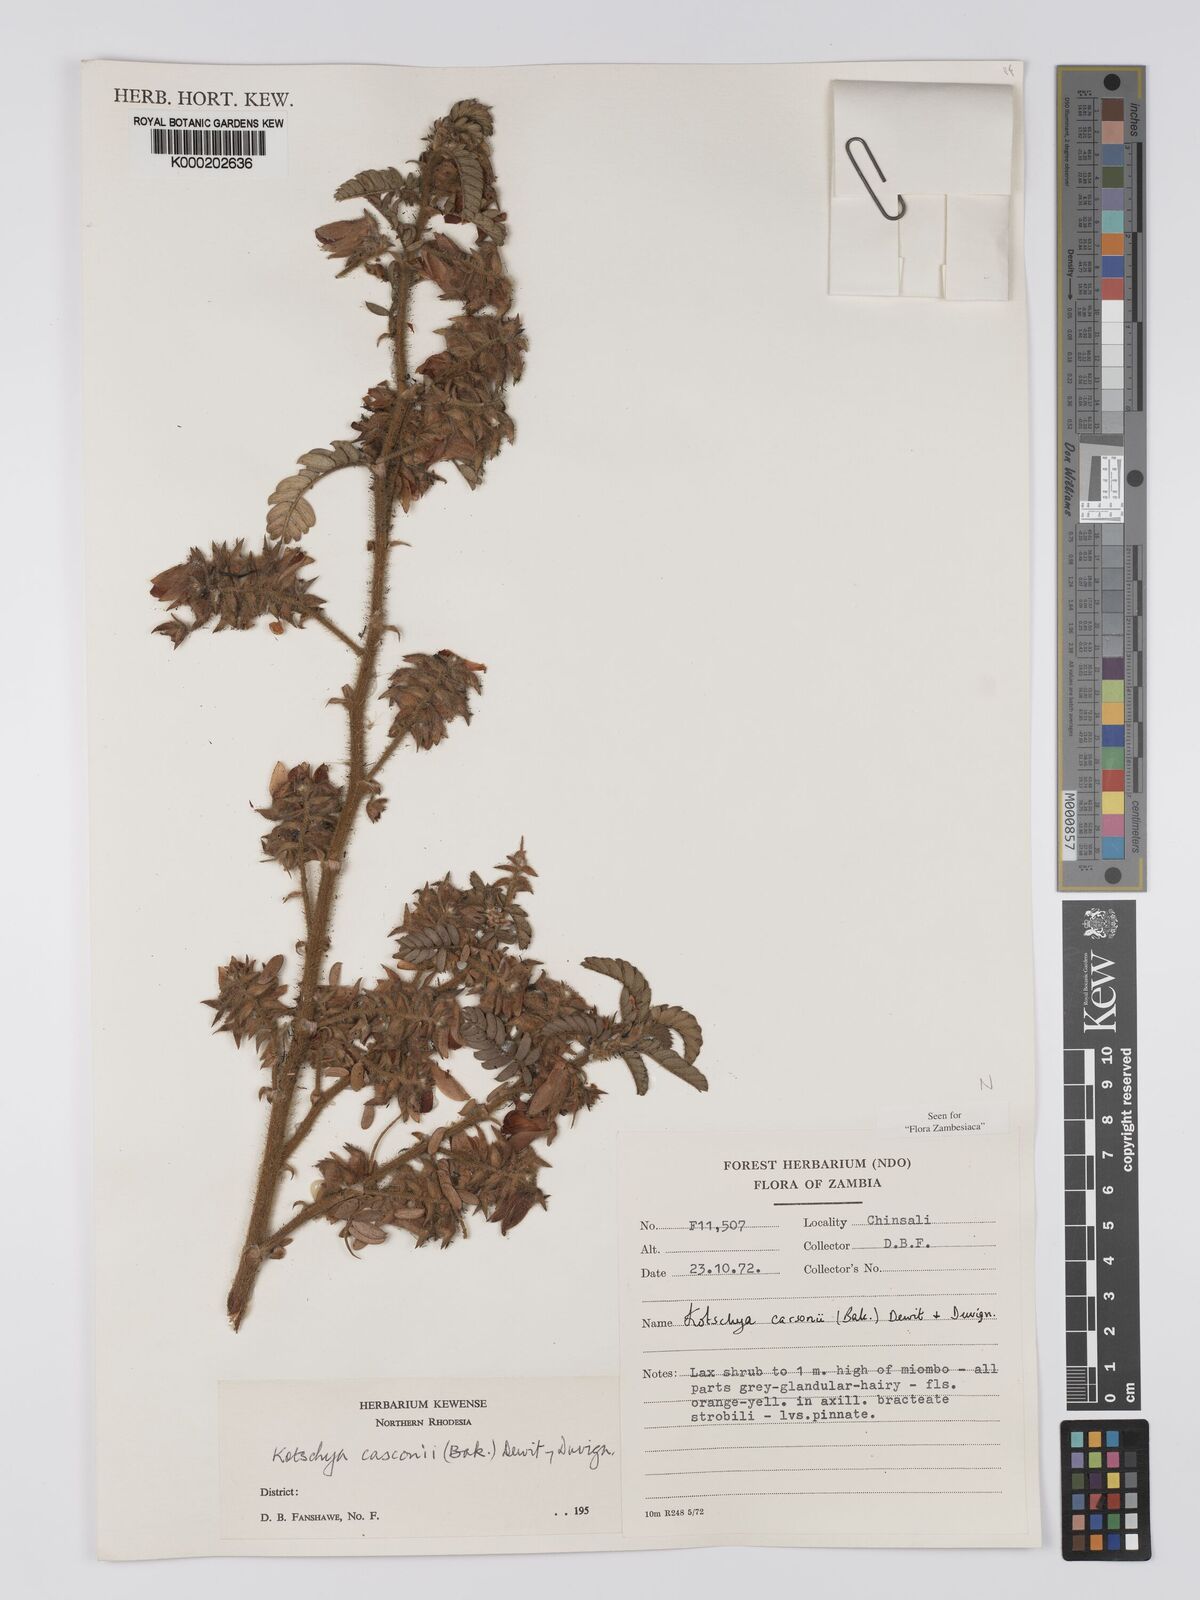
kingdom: Plantae
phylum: Tracheophyta
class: Magnoliopsida
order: Fabales
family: Fabaceae
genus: Kotschya
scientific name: Kotschya carsonii
